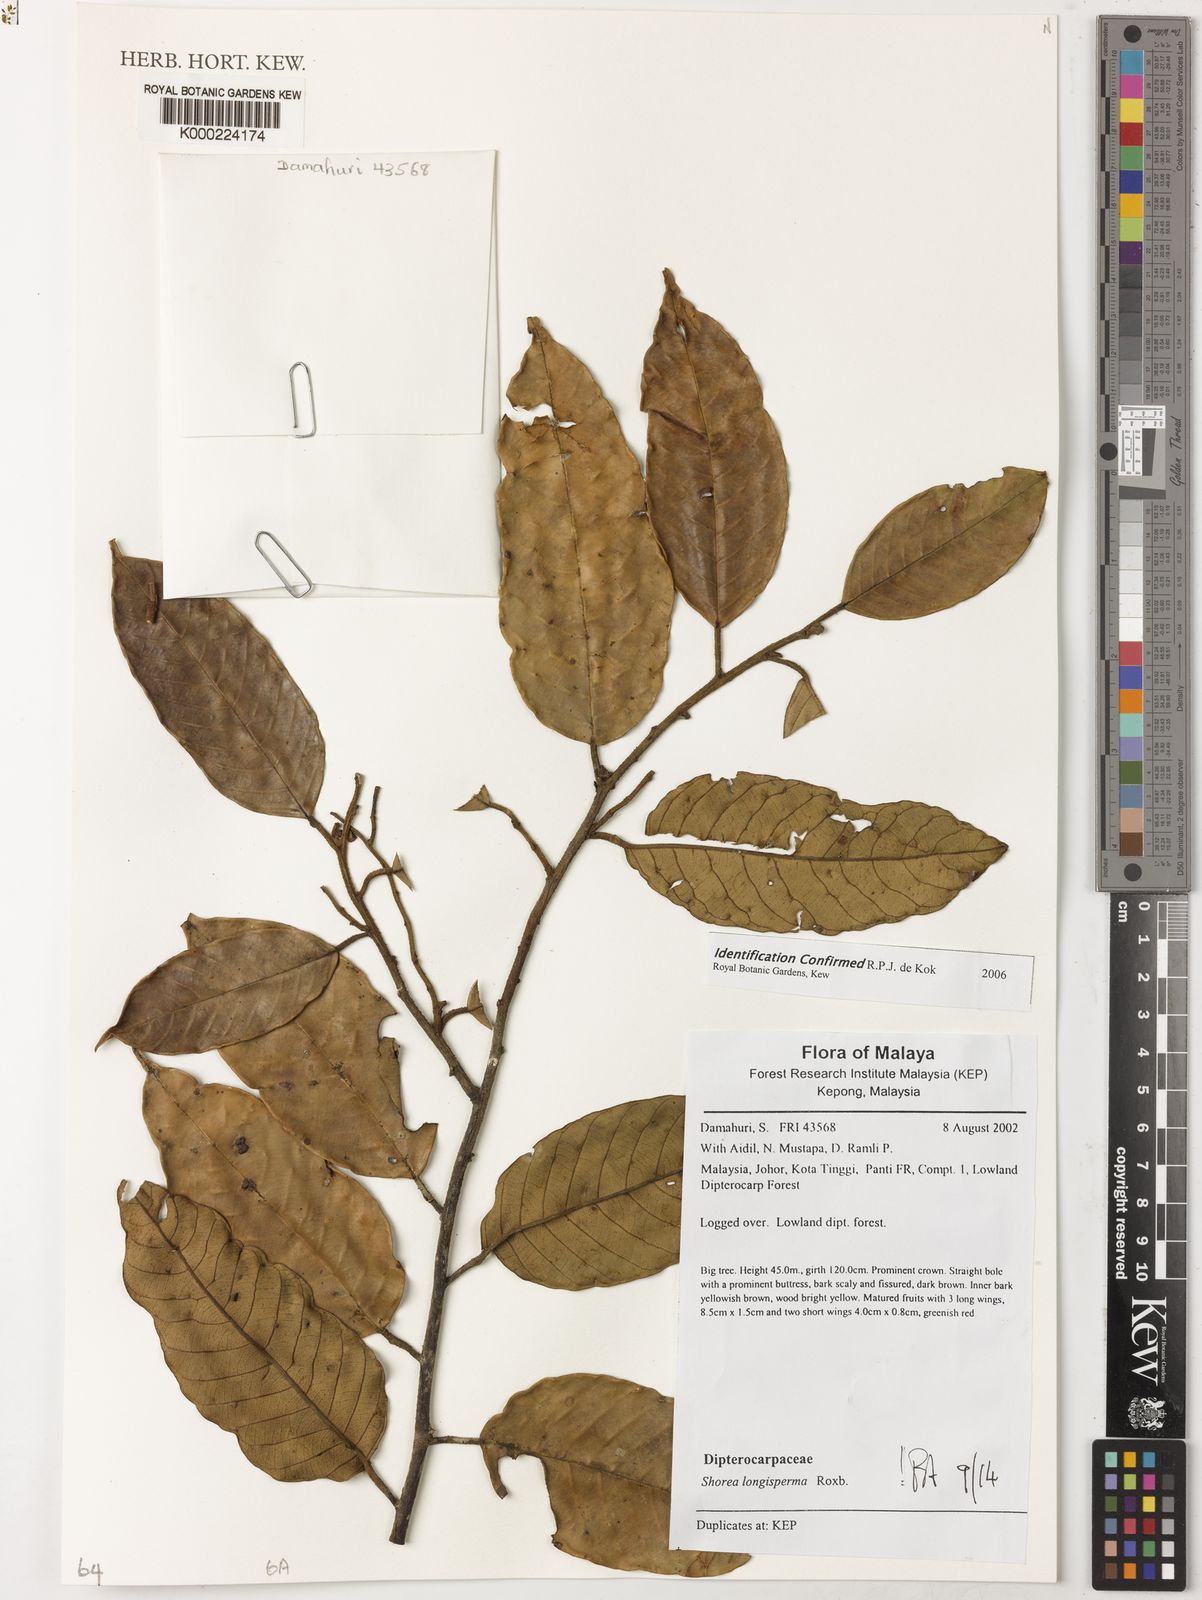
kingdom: Plantae
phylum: Tracheophyta
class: Magnoliopsida
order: Malvales
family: Dipterocarpaceae
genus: Dipterocarpus
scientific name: Dipterocarpus
